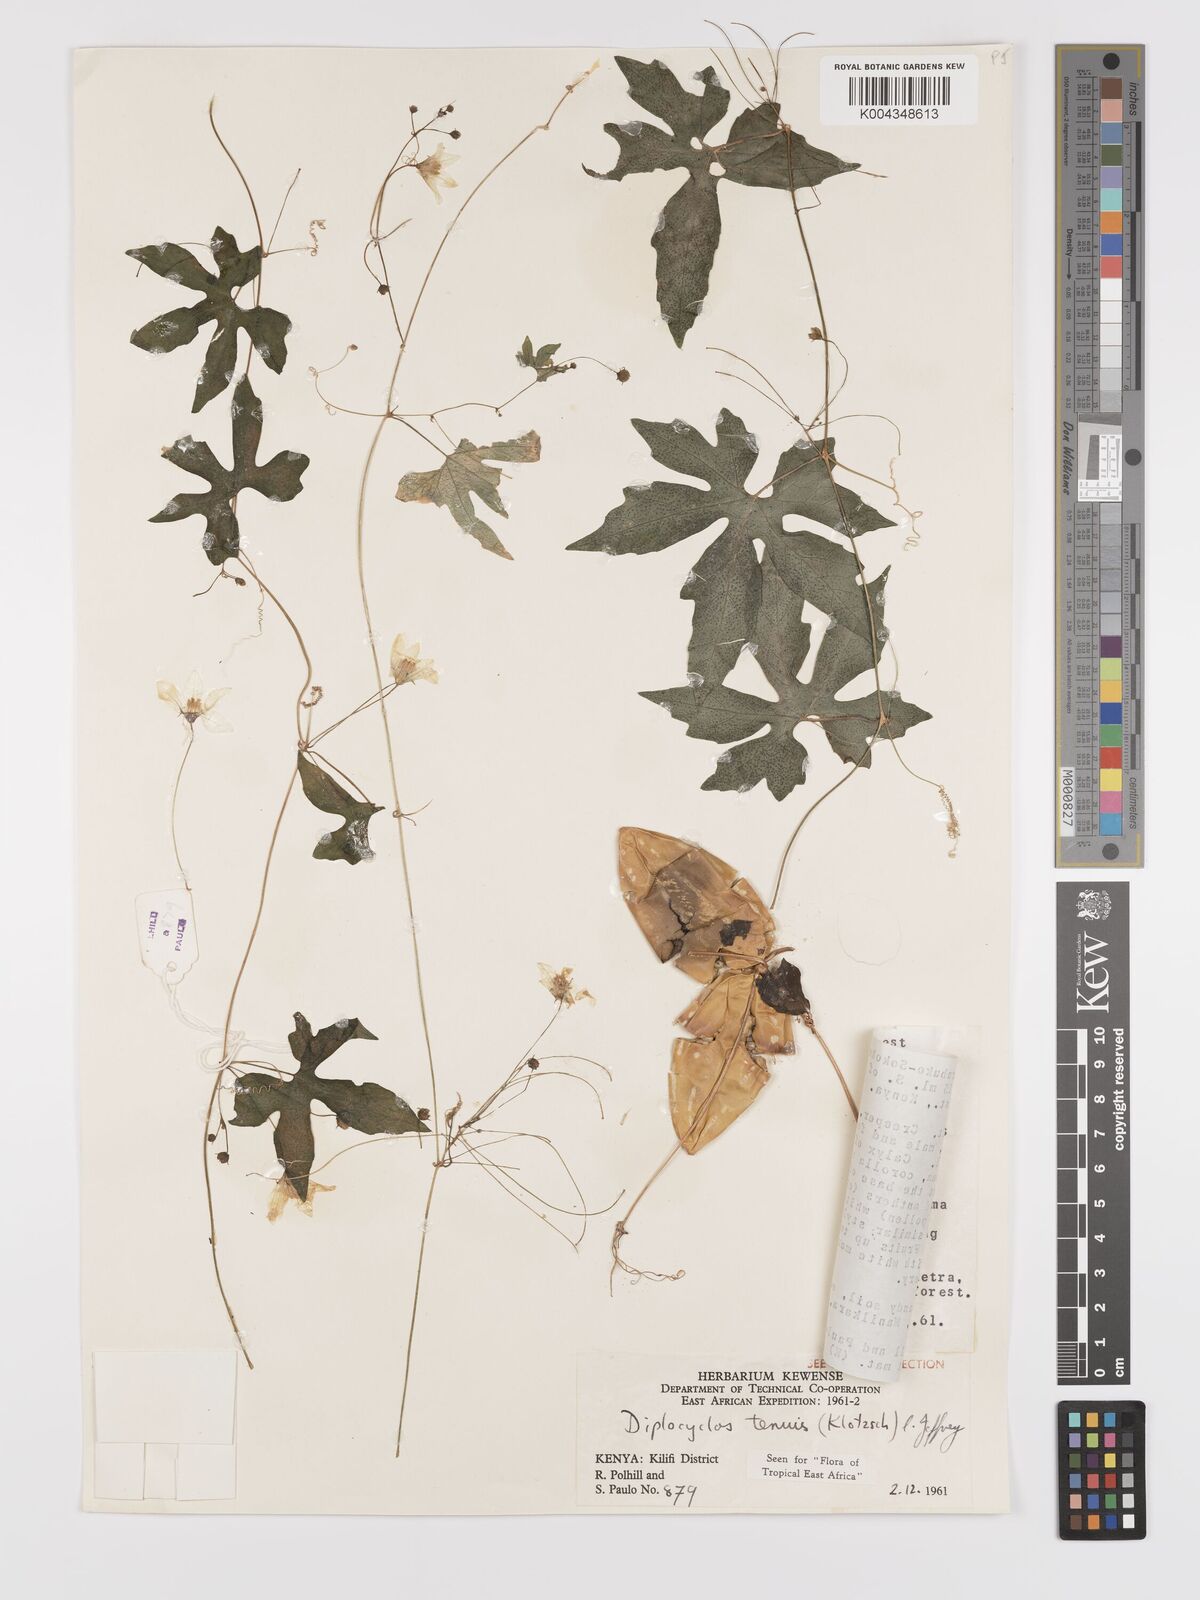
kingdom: Plantae
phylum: Tracheophyta
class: Magnoliopsida
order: Cucurbitales
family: Cucurbitaceae
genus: Diplocyclos
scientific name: Diplocyclos tenuis
